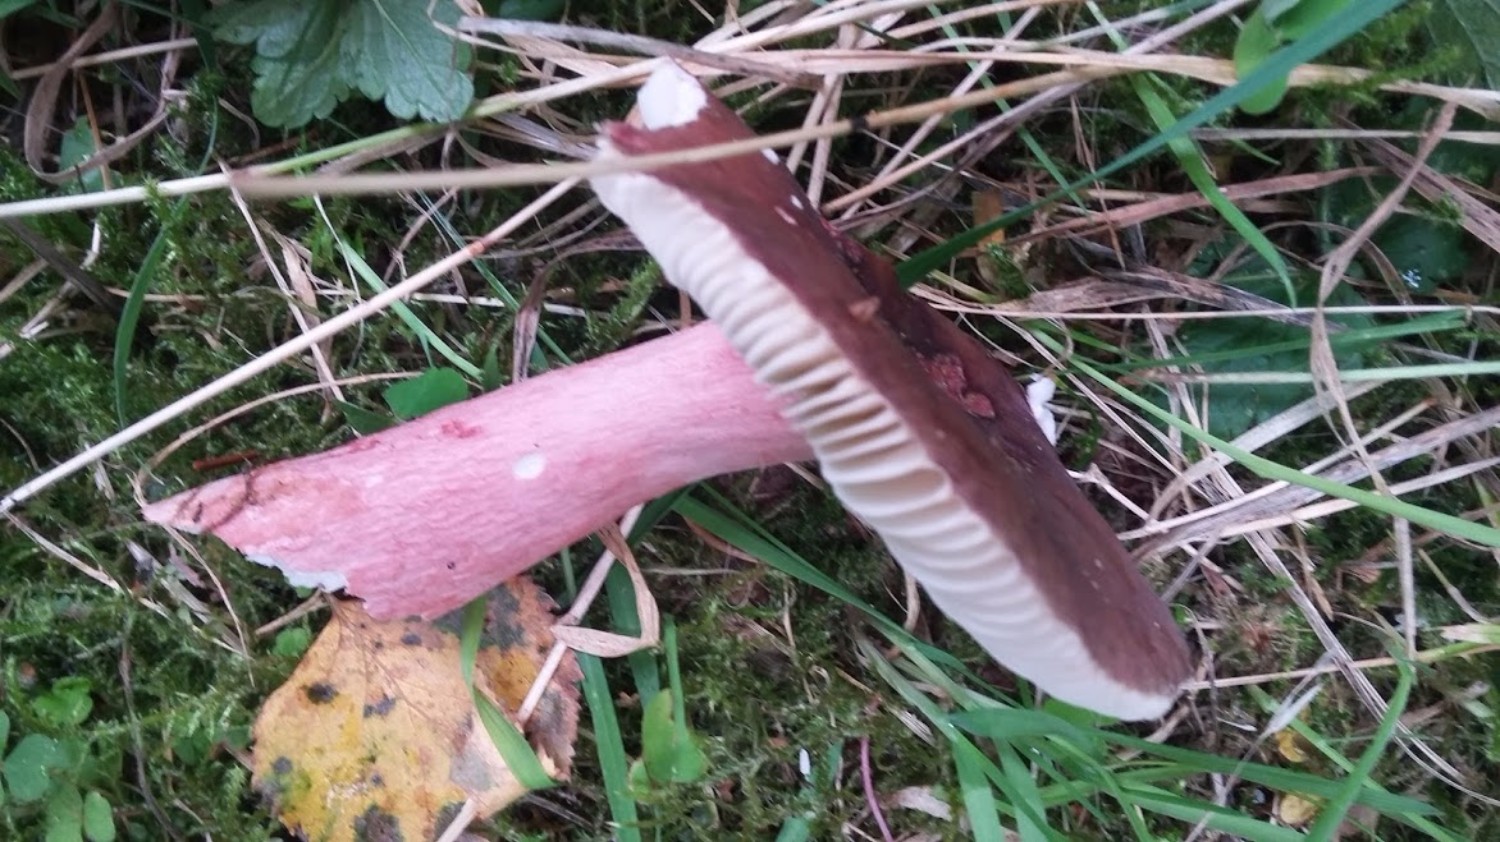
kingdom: Fungi
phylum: Basidiomycota
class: Agaricomycetes
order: Russulales
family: Russulaceae
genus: Russula
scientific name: Russula queletii
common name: Quélets skørhat
